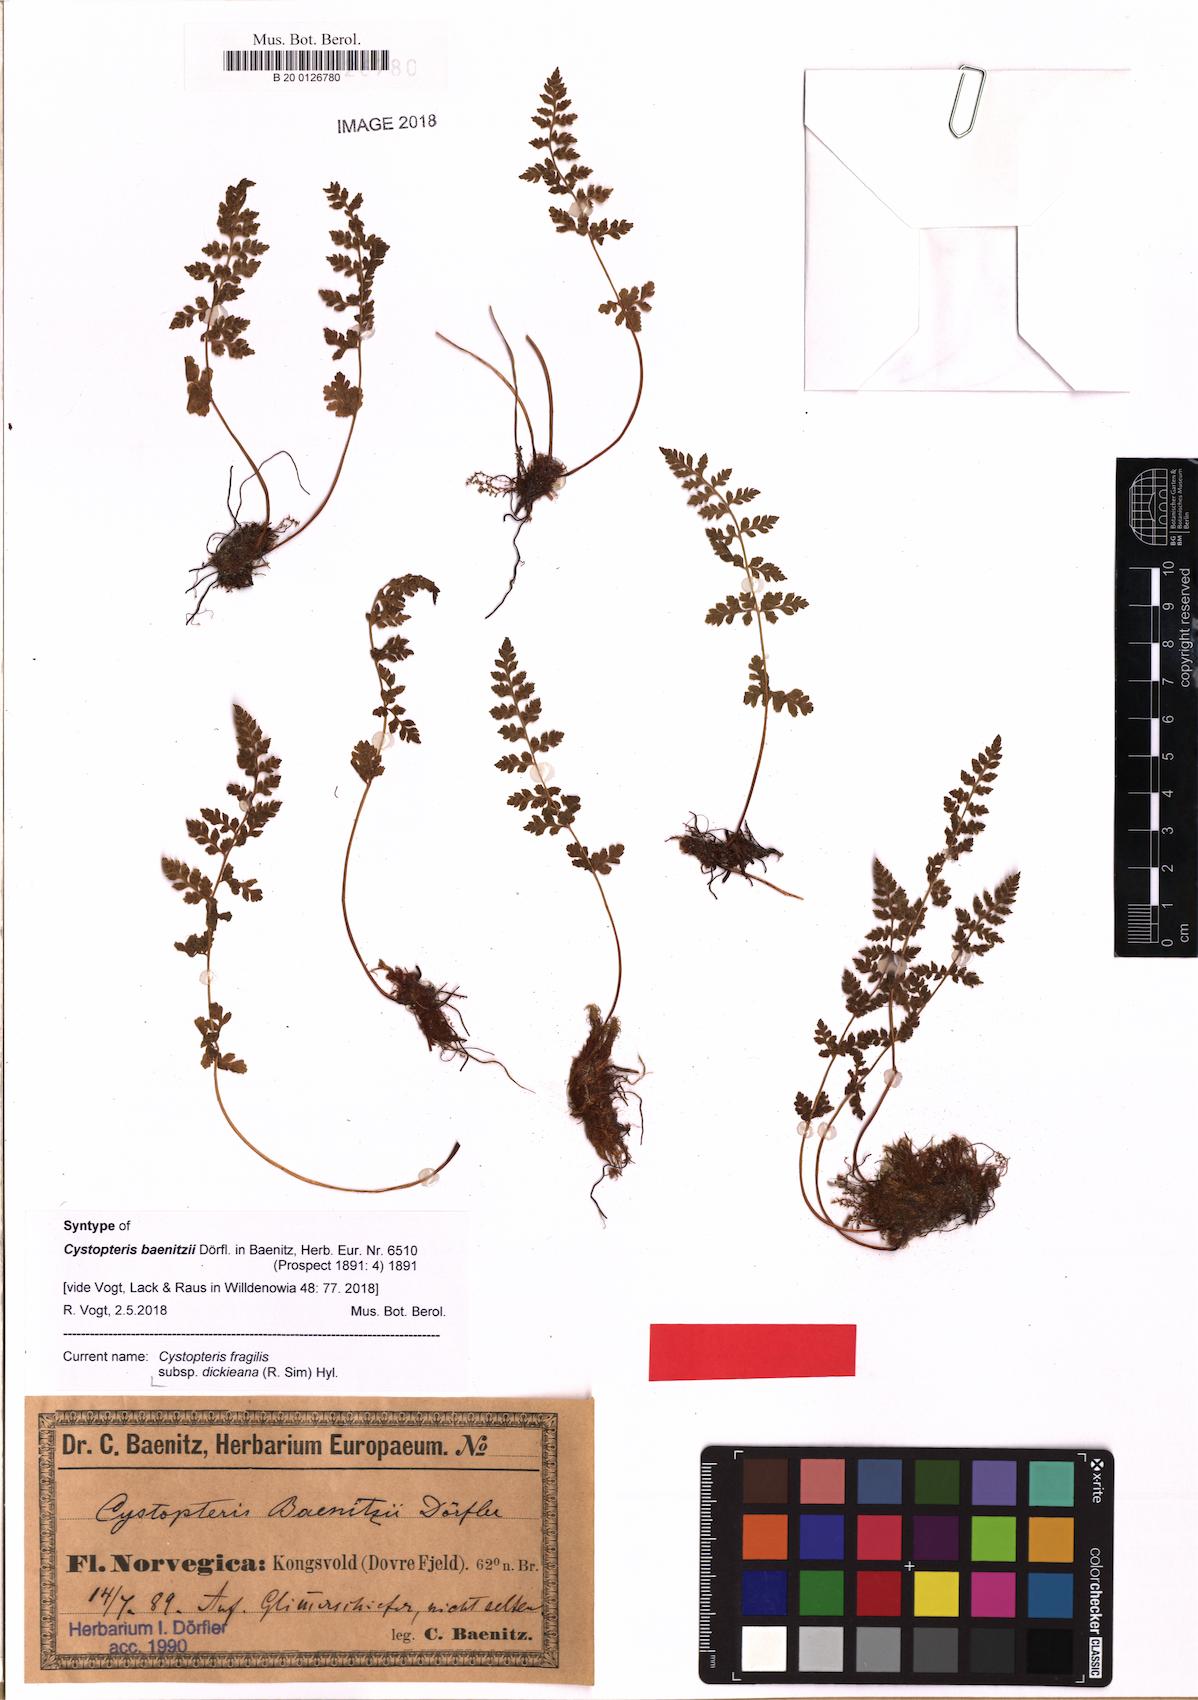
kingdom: Plantae
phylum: Tracheophyta
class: Polypodiopsida
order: Polypodiales
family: Cystopteridaceae
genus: Cystopteris
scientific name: Cystopteris dickieana
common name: Dickie's bladder-fern
